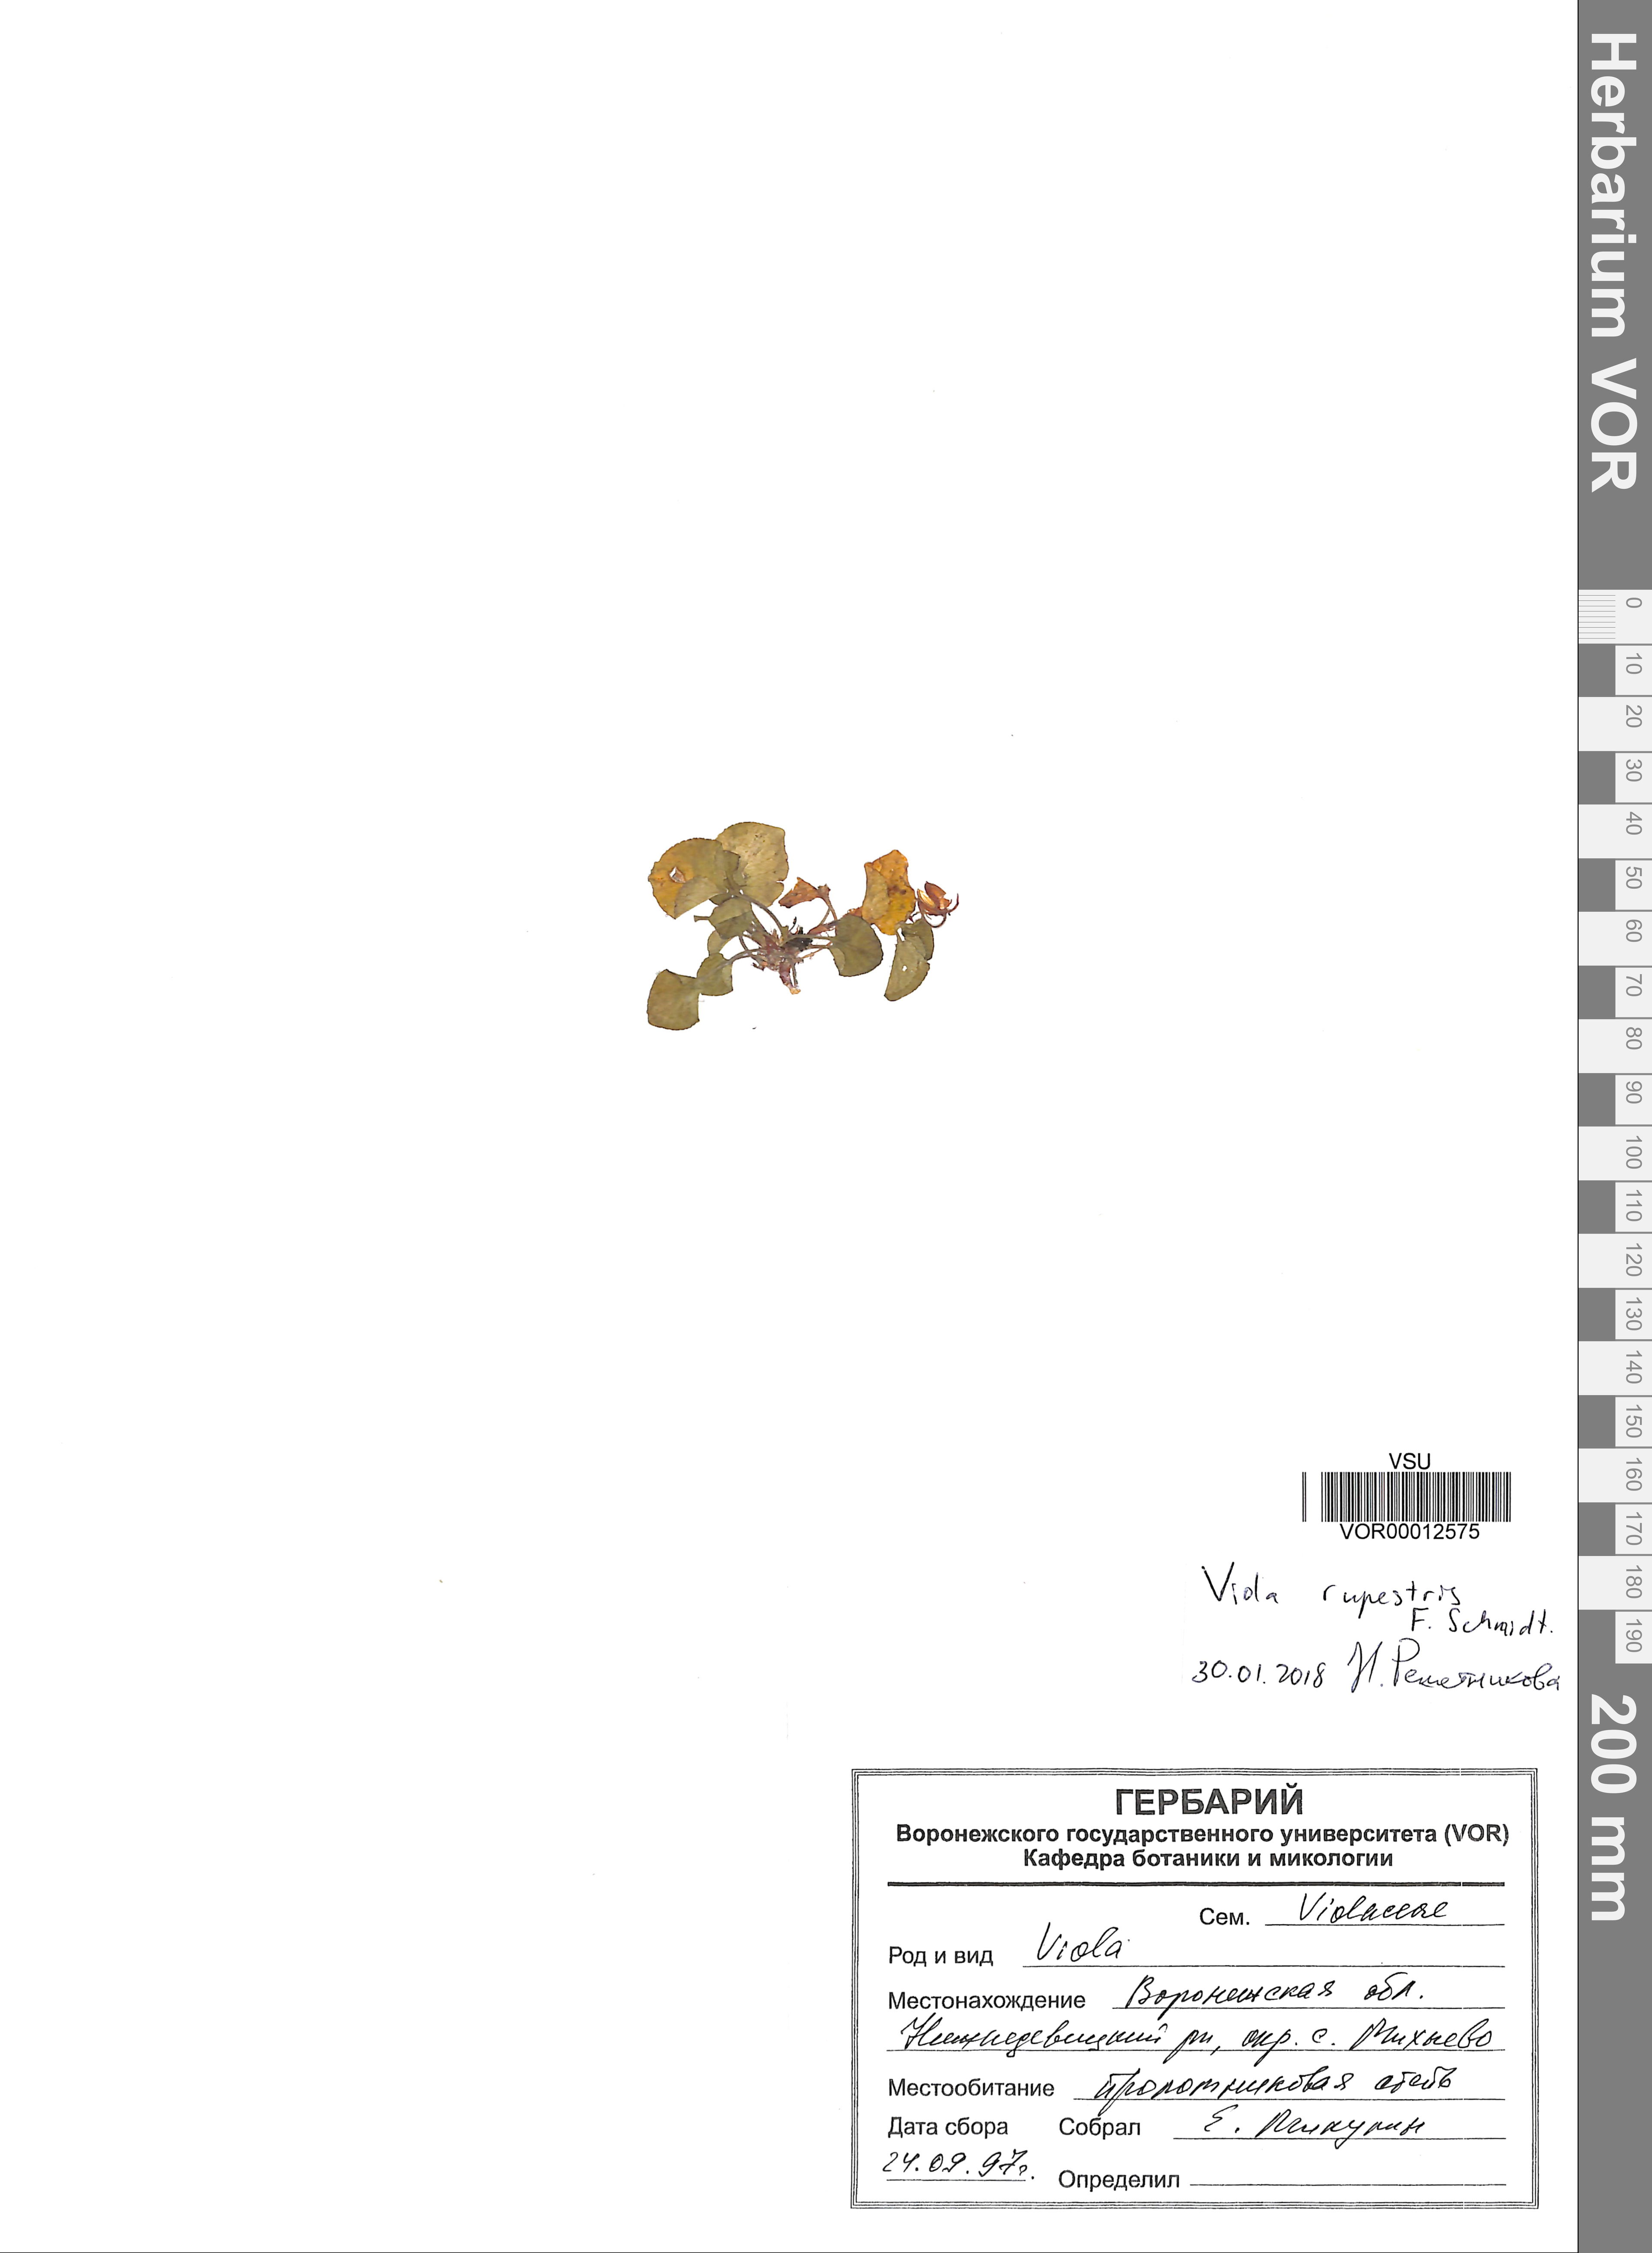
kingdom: Plantae
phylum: Tracheophyta
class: Magnoliopsida
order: Malpighiales
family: Violaceae
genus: Viola
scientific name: Viola rupestris
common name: Teesdale violet
